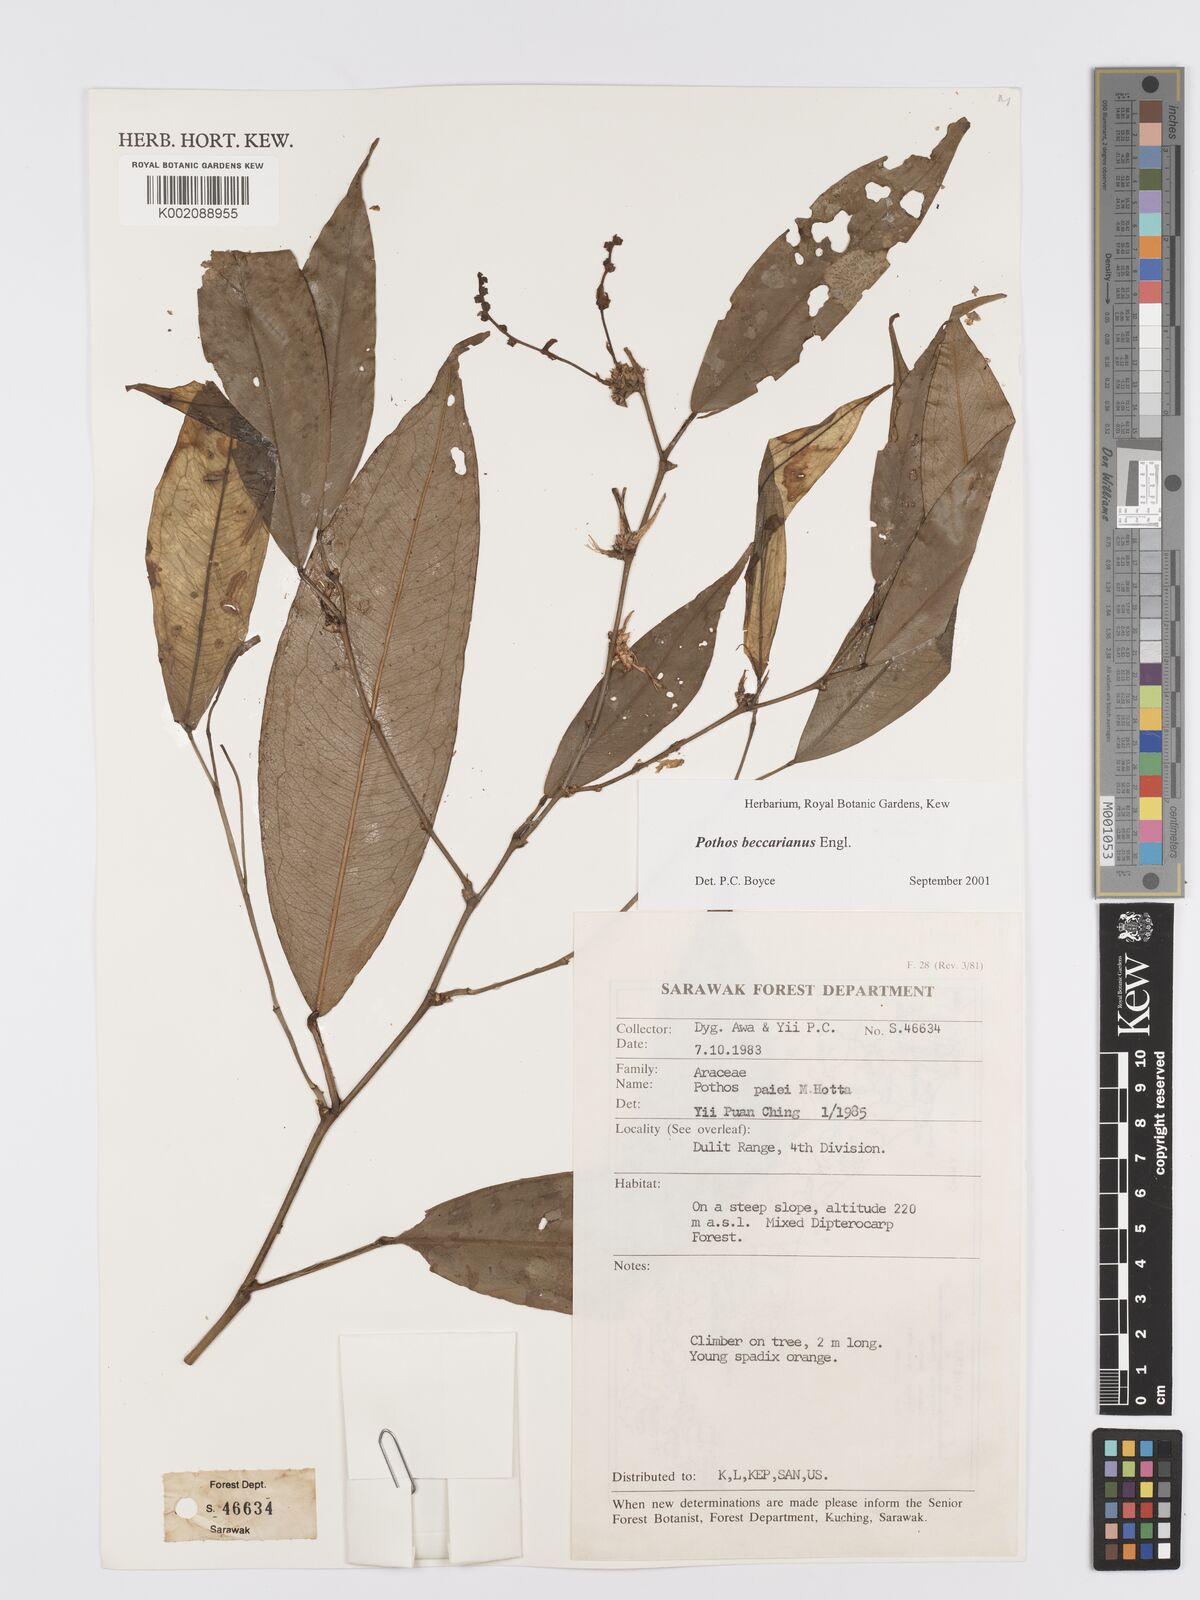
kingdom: Plantae
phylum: Tracheophyta
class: Liliopsida
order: Alismatales
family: Araceae
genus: Pothos
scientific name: Pothos beccarianus
